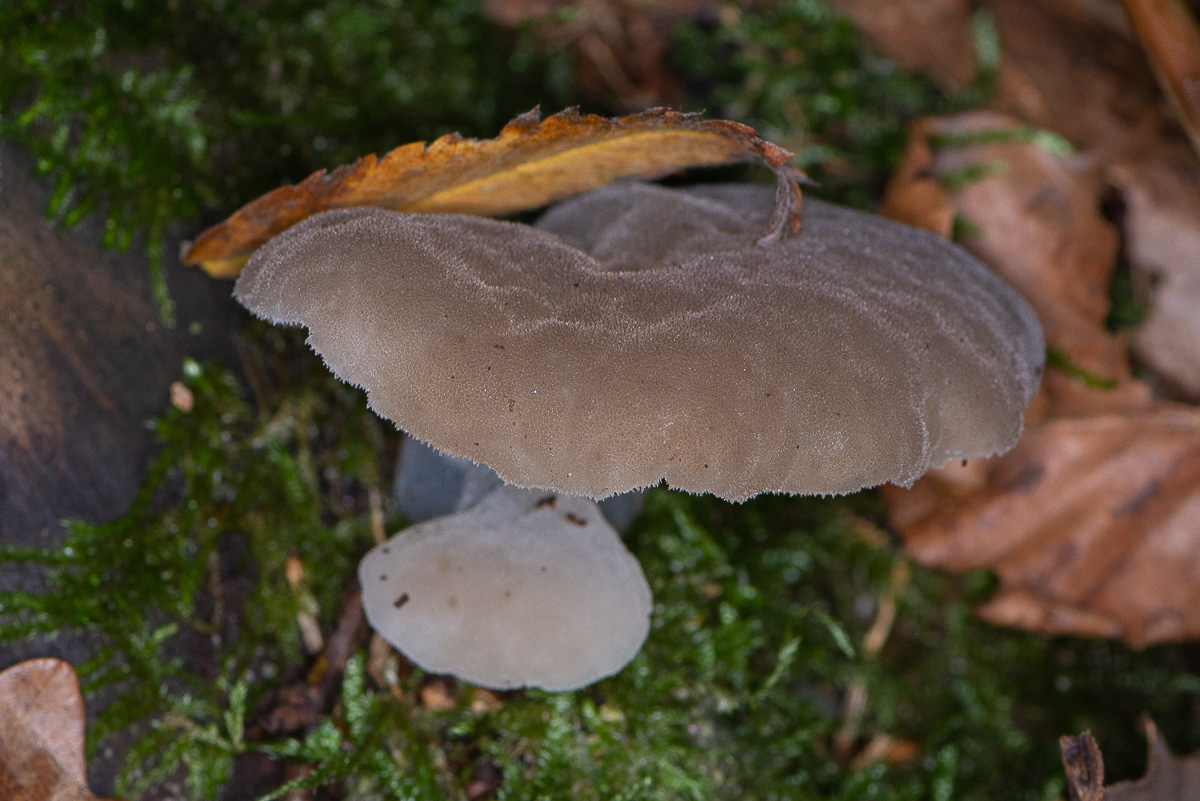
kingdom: Fungi
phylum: Basidiomycota
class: Agaricomycetes
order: Auriculariales
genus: Pseudohydnum
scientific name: Pseudohydnum gelatinosum
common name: bævretand
